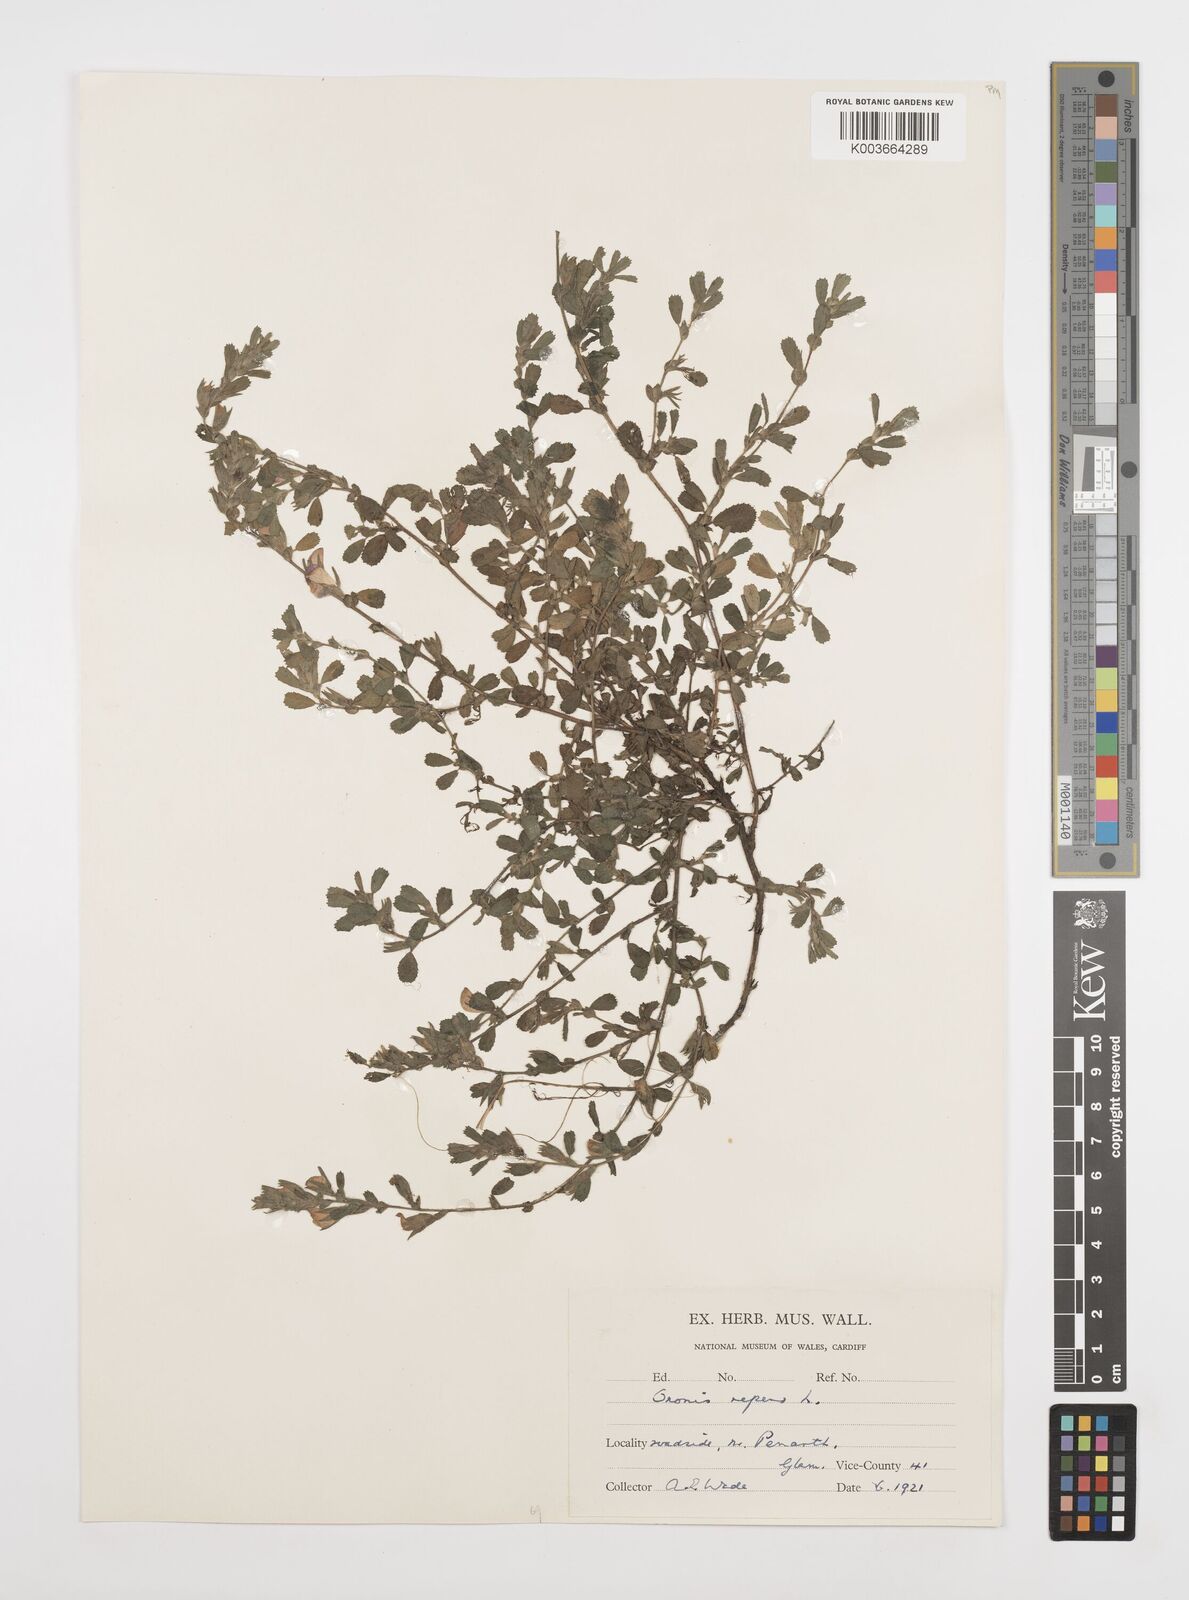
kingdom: Plantae
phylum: Tracheophyta
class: Magnoliopsida
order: Fabales
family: Fabaceae
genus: Ononis
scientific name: Ononis spinosa
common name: Spiny restharrow
